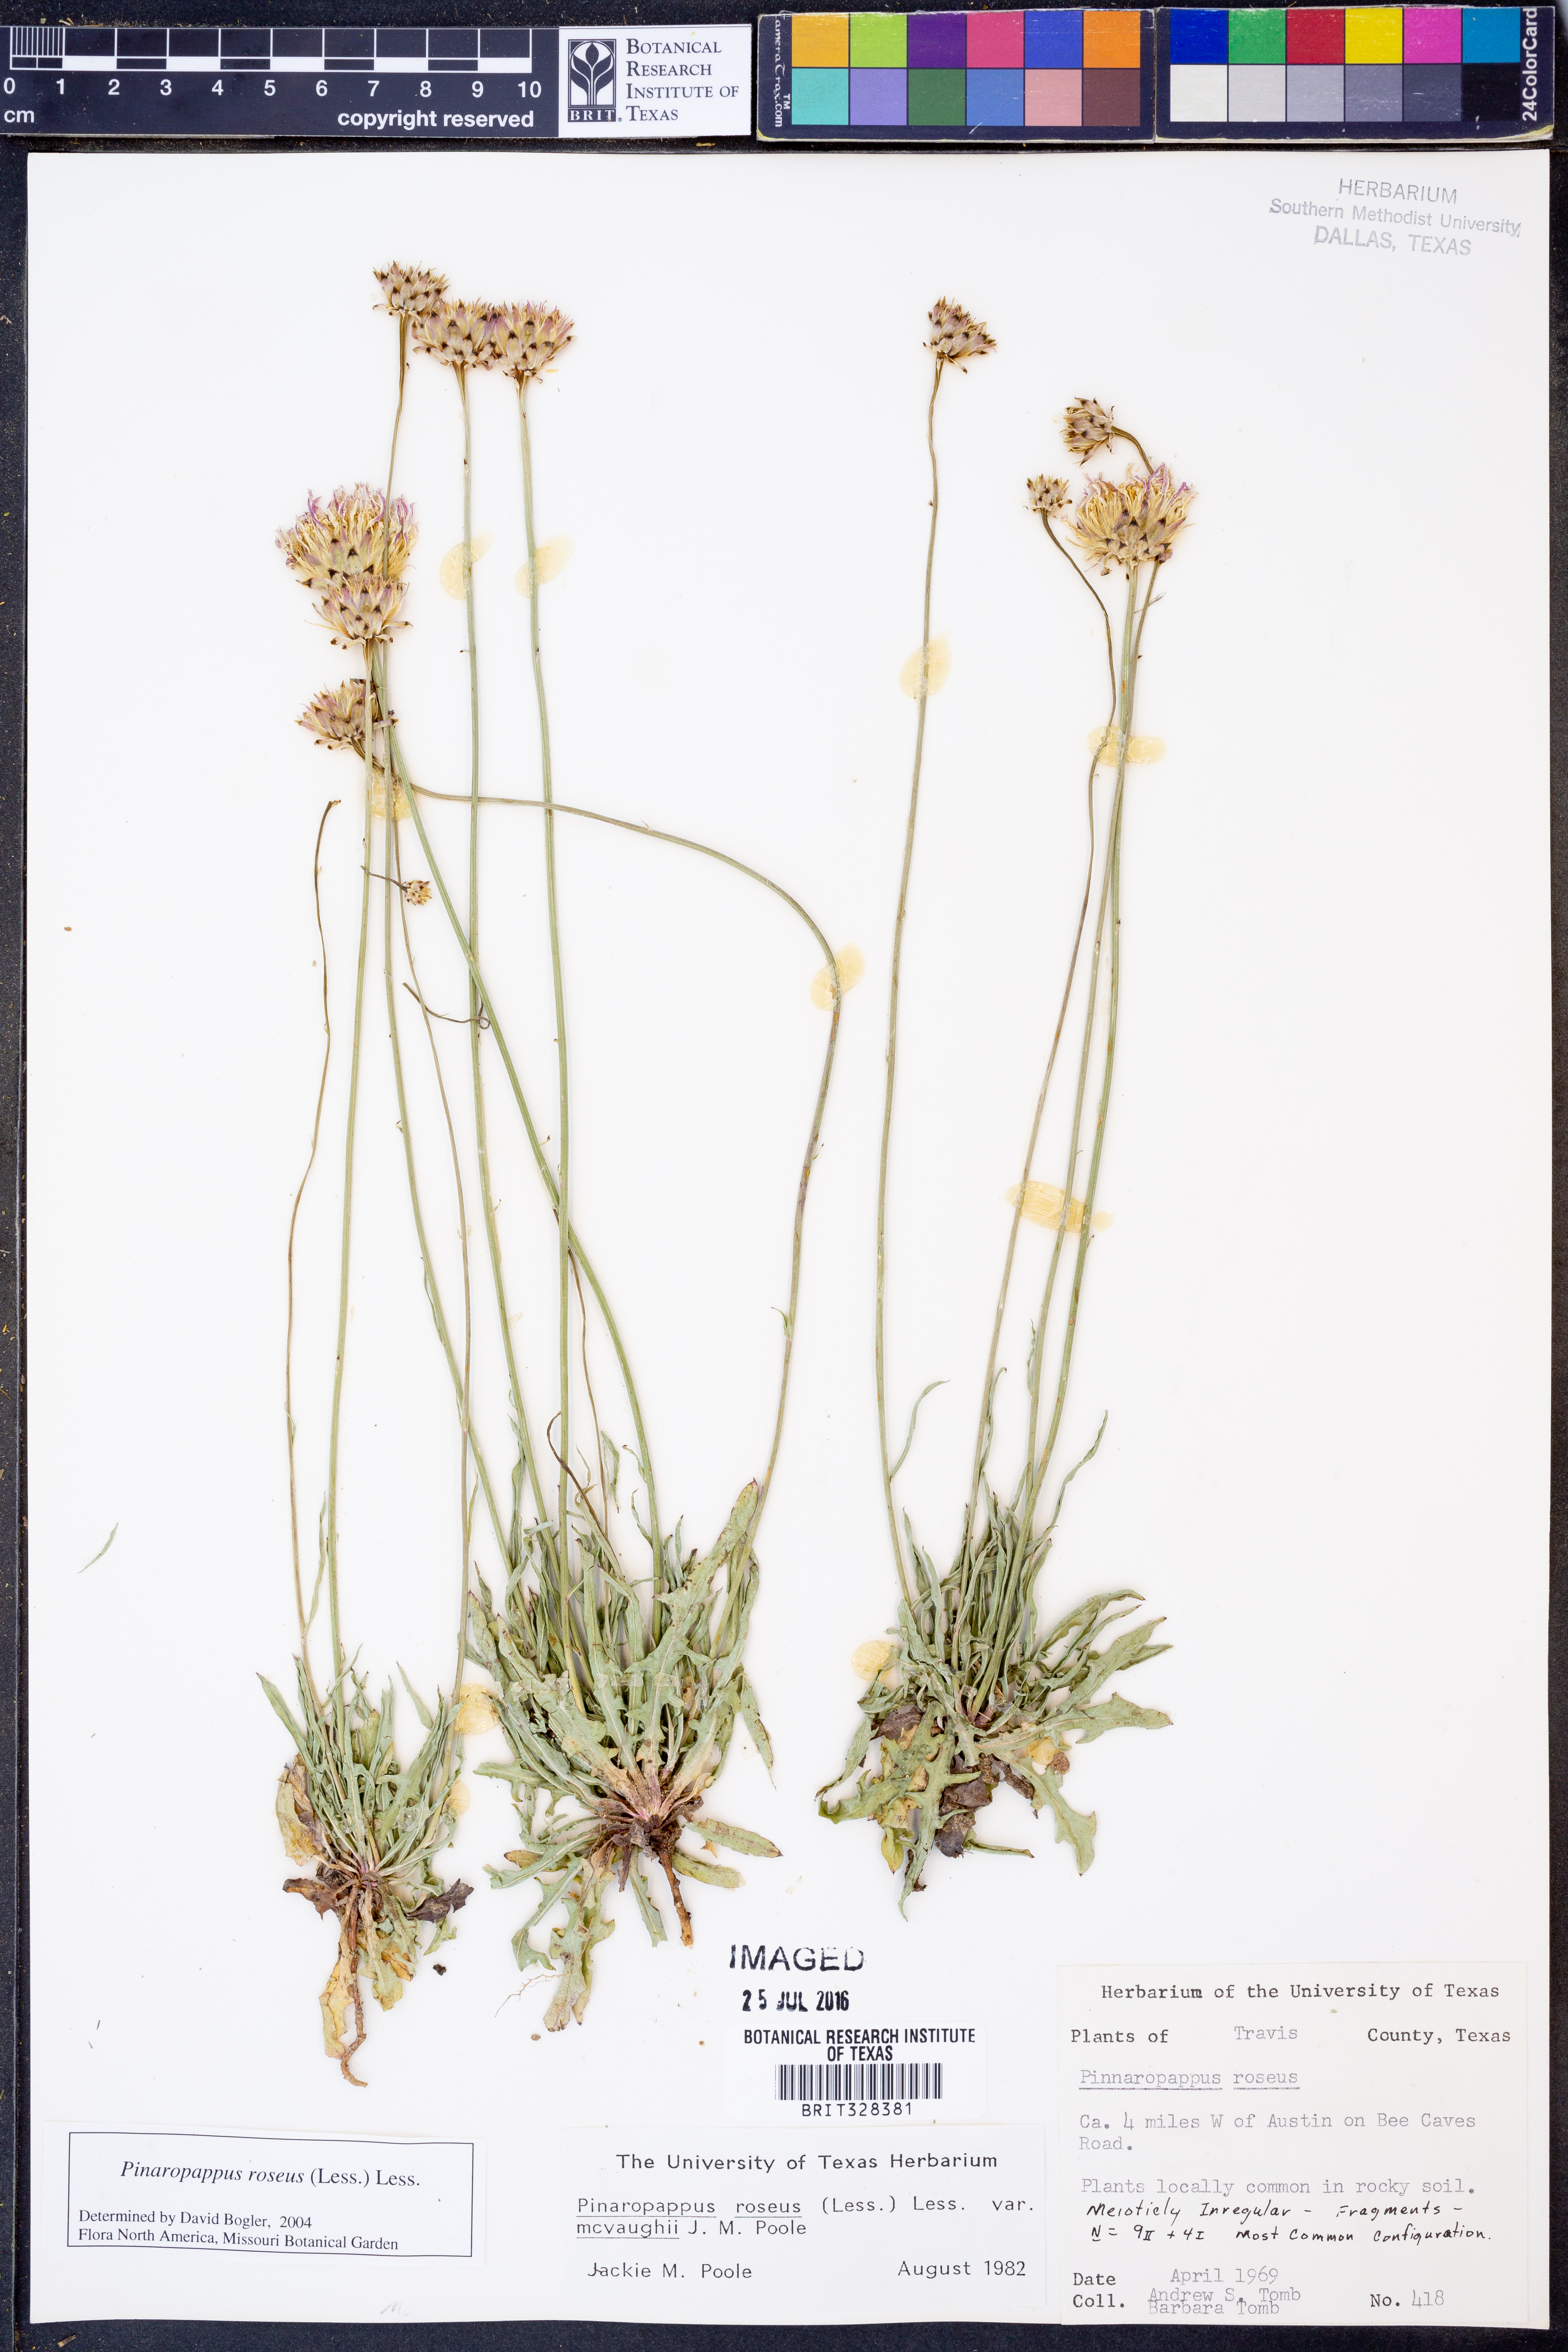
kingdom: Plantae
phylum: Tracheophyta
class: Magnoliopsida
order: Asterales
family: Asteraceae
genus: Pinaropappus
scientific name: Pinaropappus roseus
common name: Rock-lettuce
